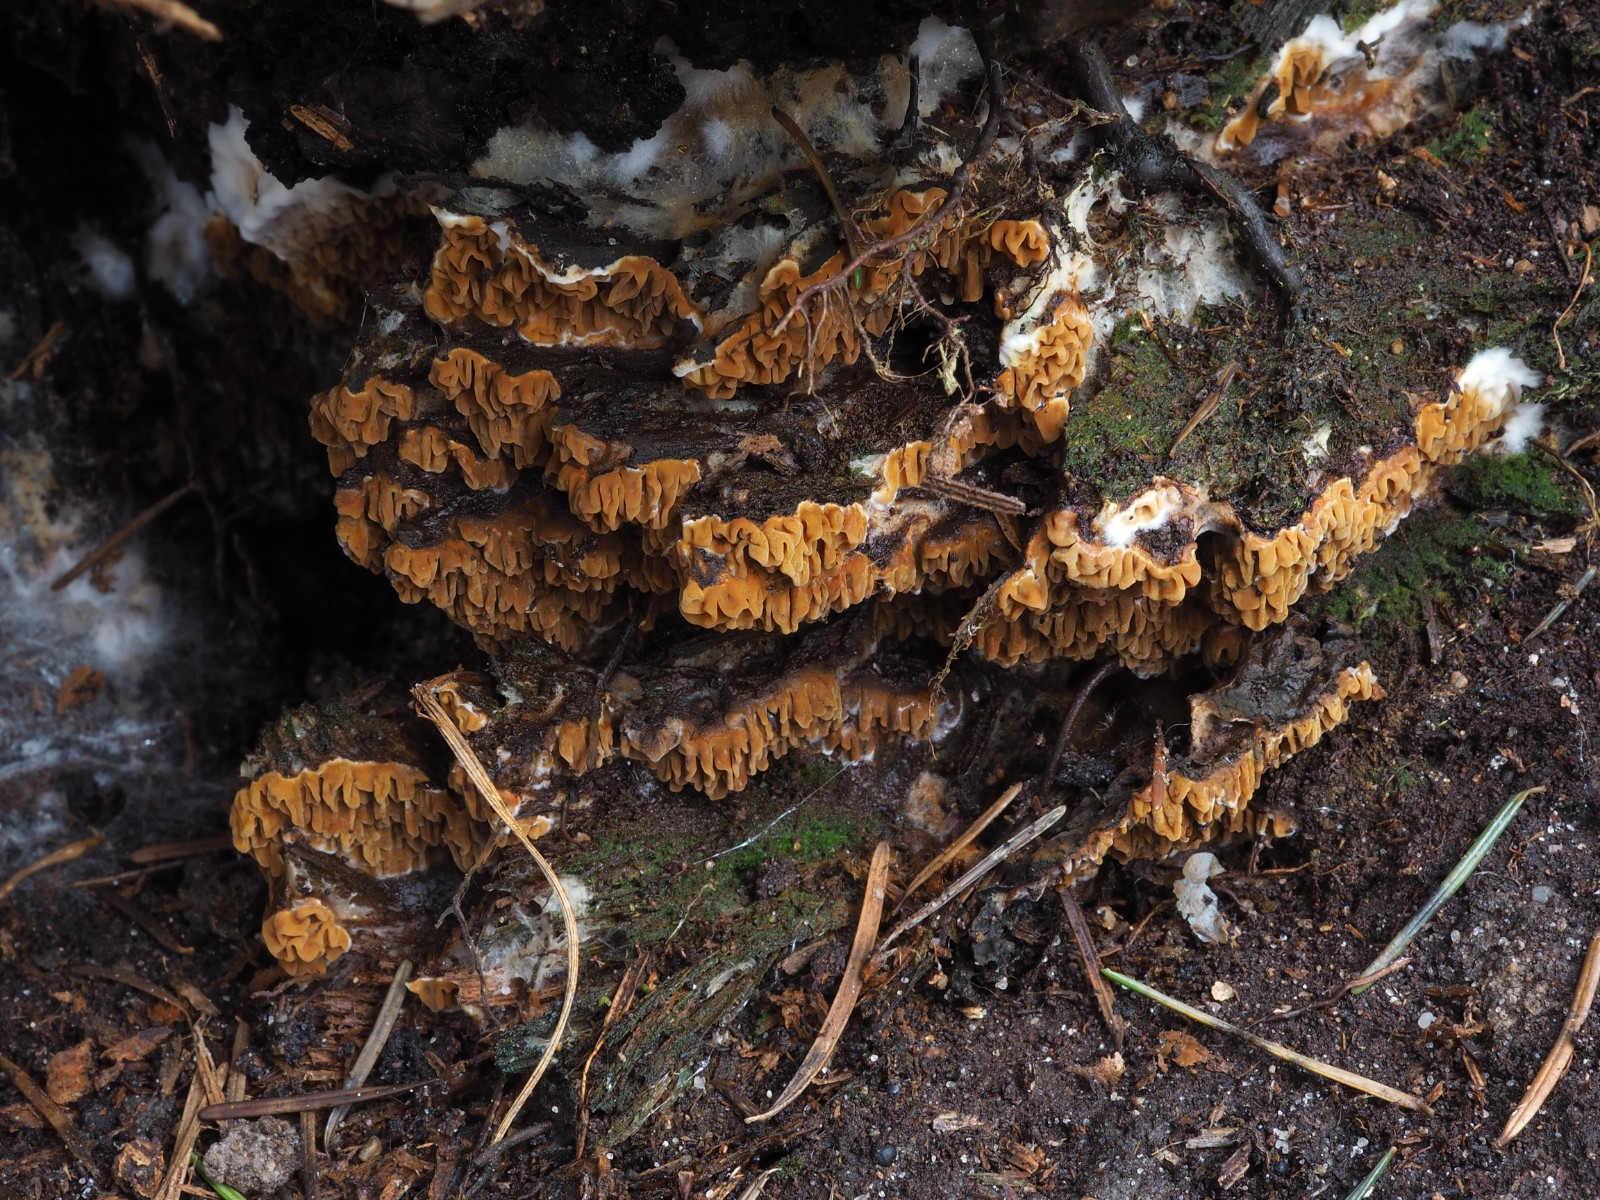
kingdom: Fungi
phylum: Basidiomycota
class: Agaricomycetes
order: Boletales
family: Serpulaceae
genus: Serpula
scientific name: Serpula himantioides
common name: tyndkødet hussvamp
